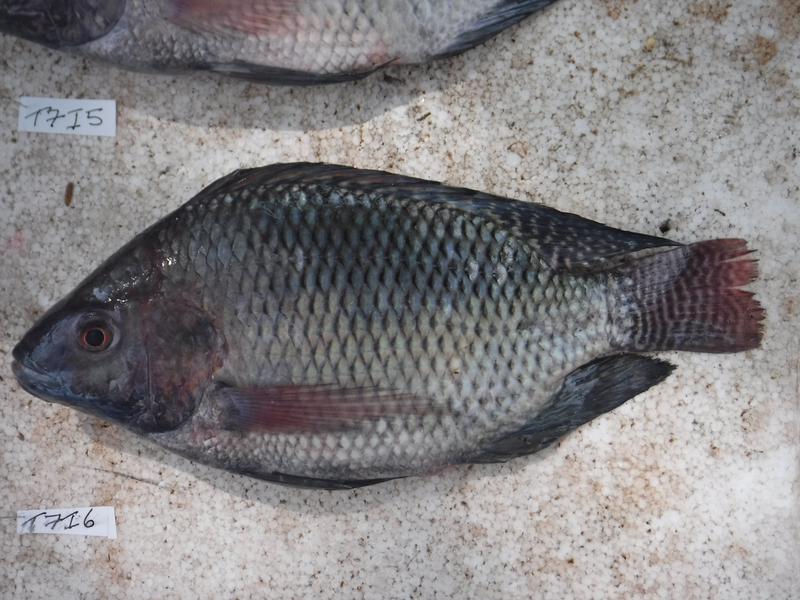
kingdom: Animalia
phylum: Chordata
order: Perciformes
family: Cichlidae
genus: Oreochromis
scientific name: Oreochromis niloticus
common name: Nile tilapia
